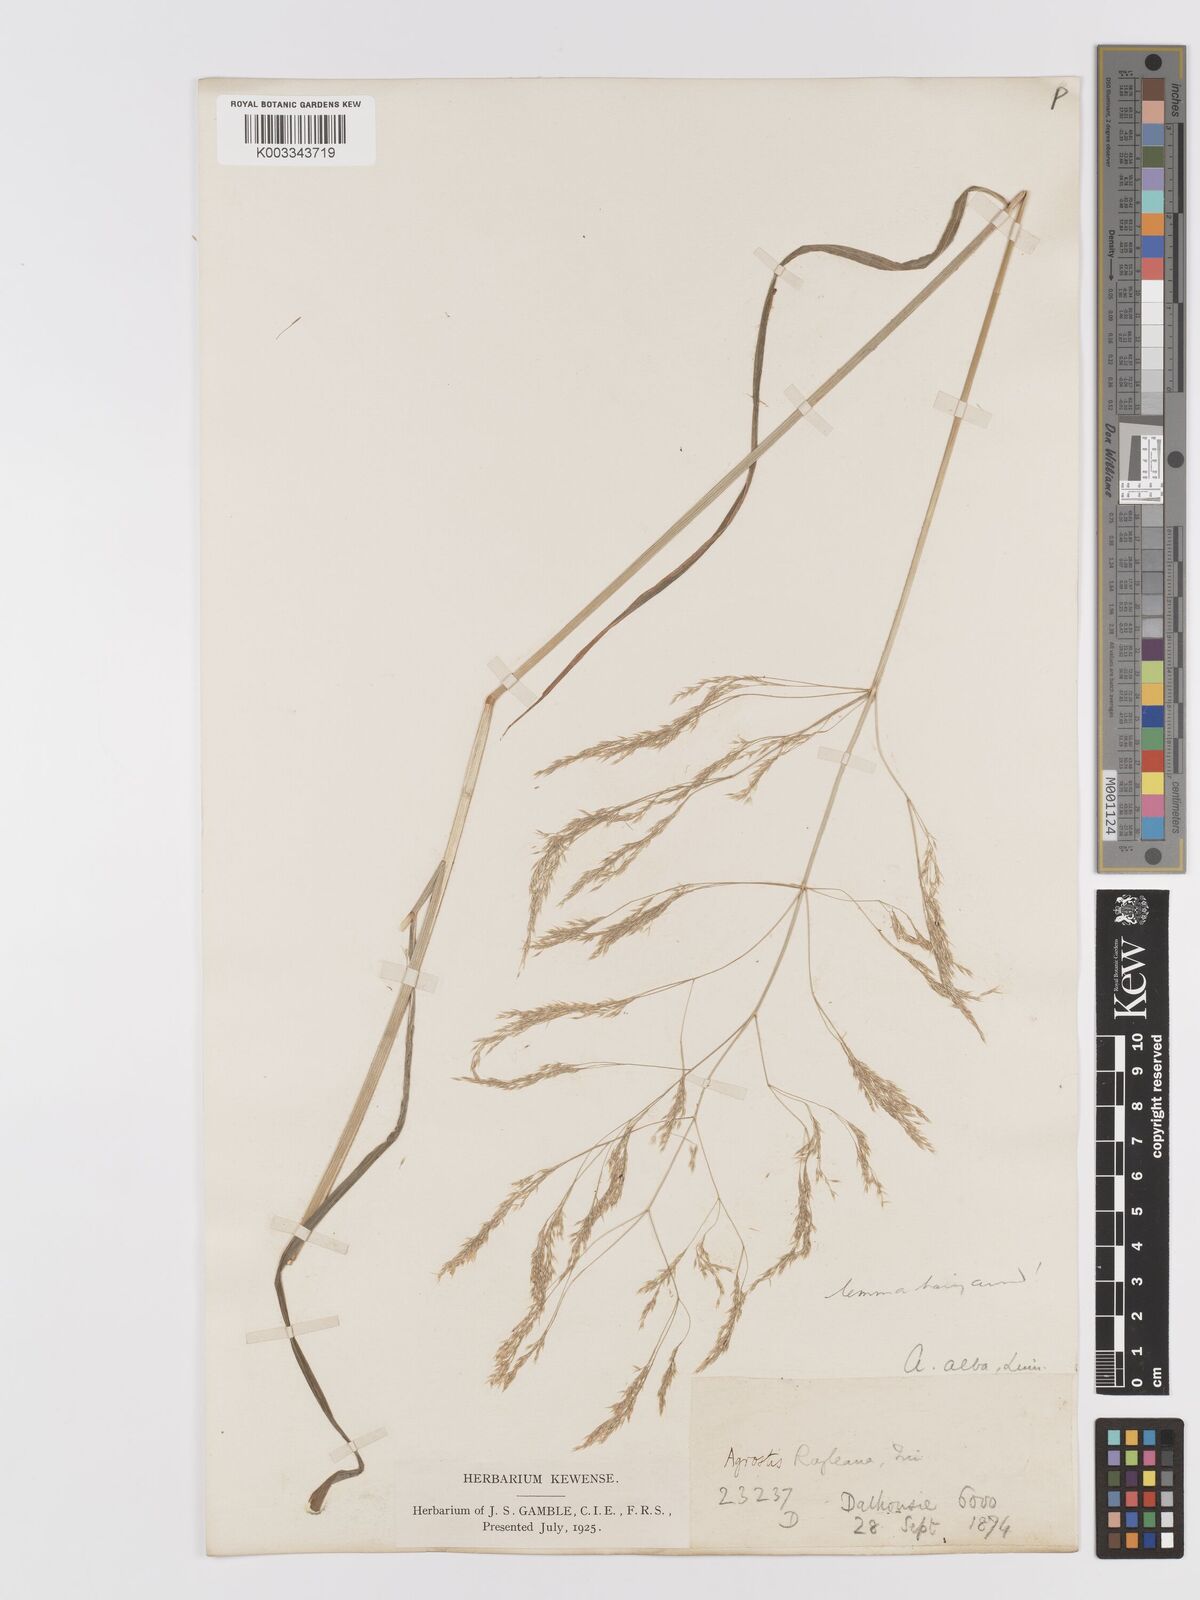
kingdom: Plantae
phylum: Tracheophyta
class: Liliopsida
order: Poales
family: Poaceae
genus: Agrostis
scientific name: Agrostis pilosula
